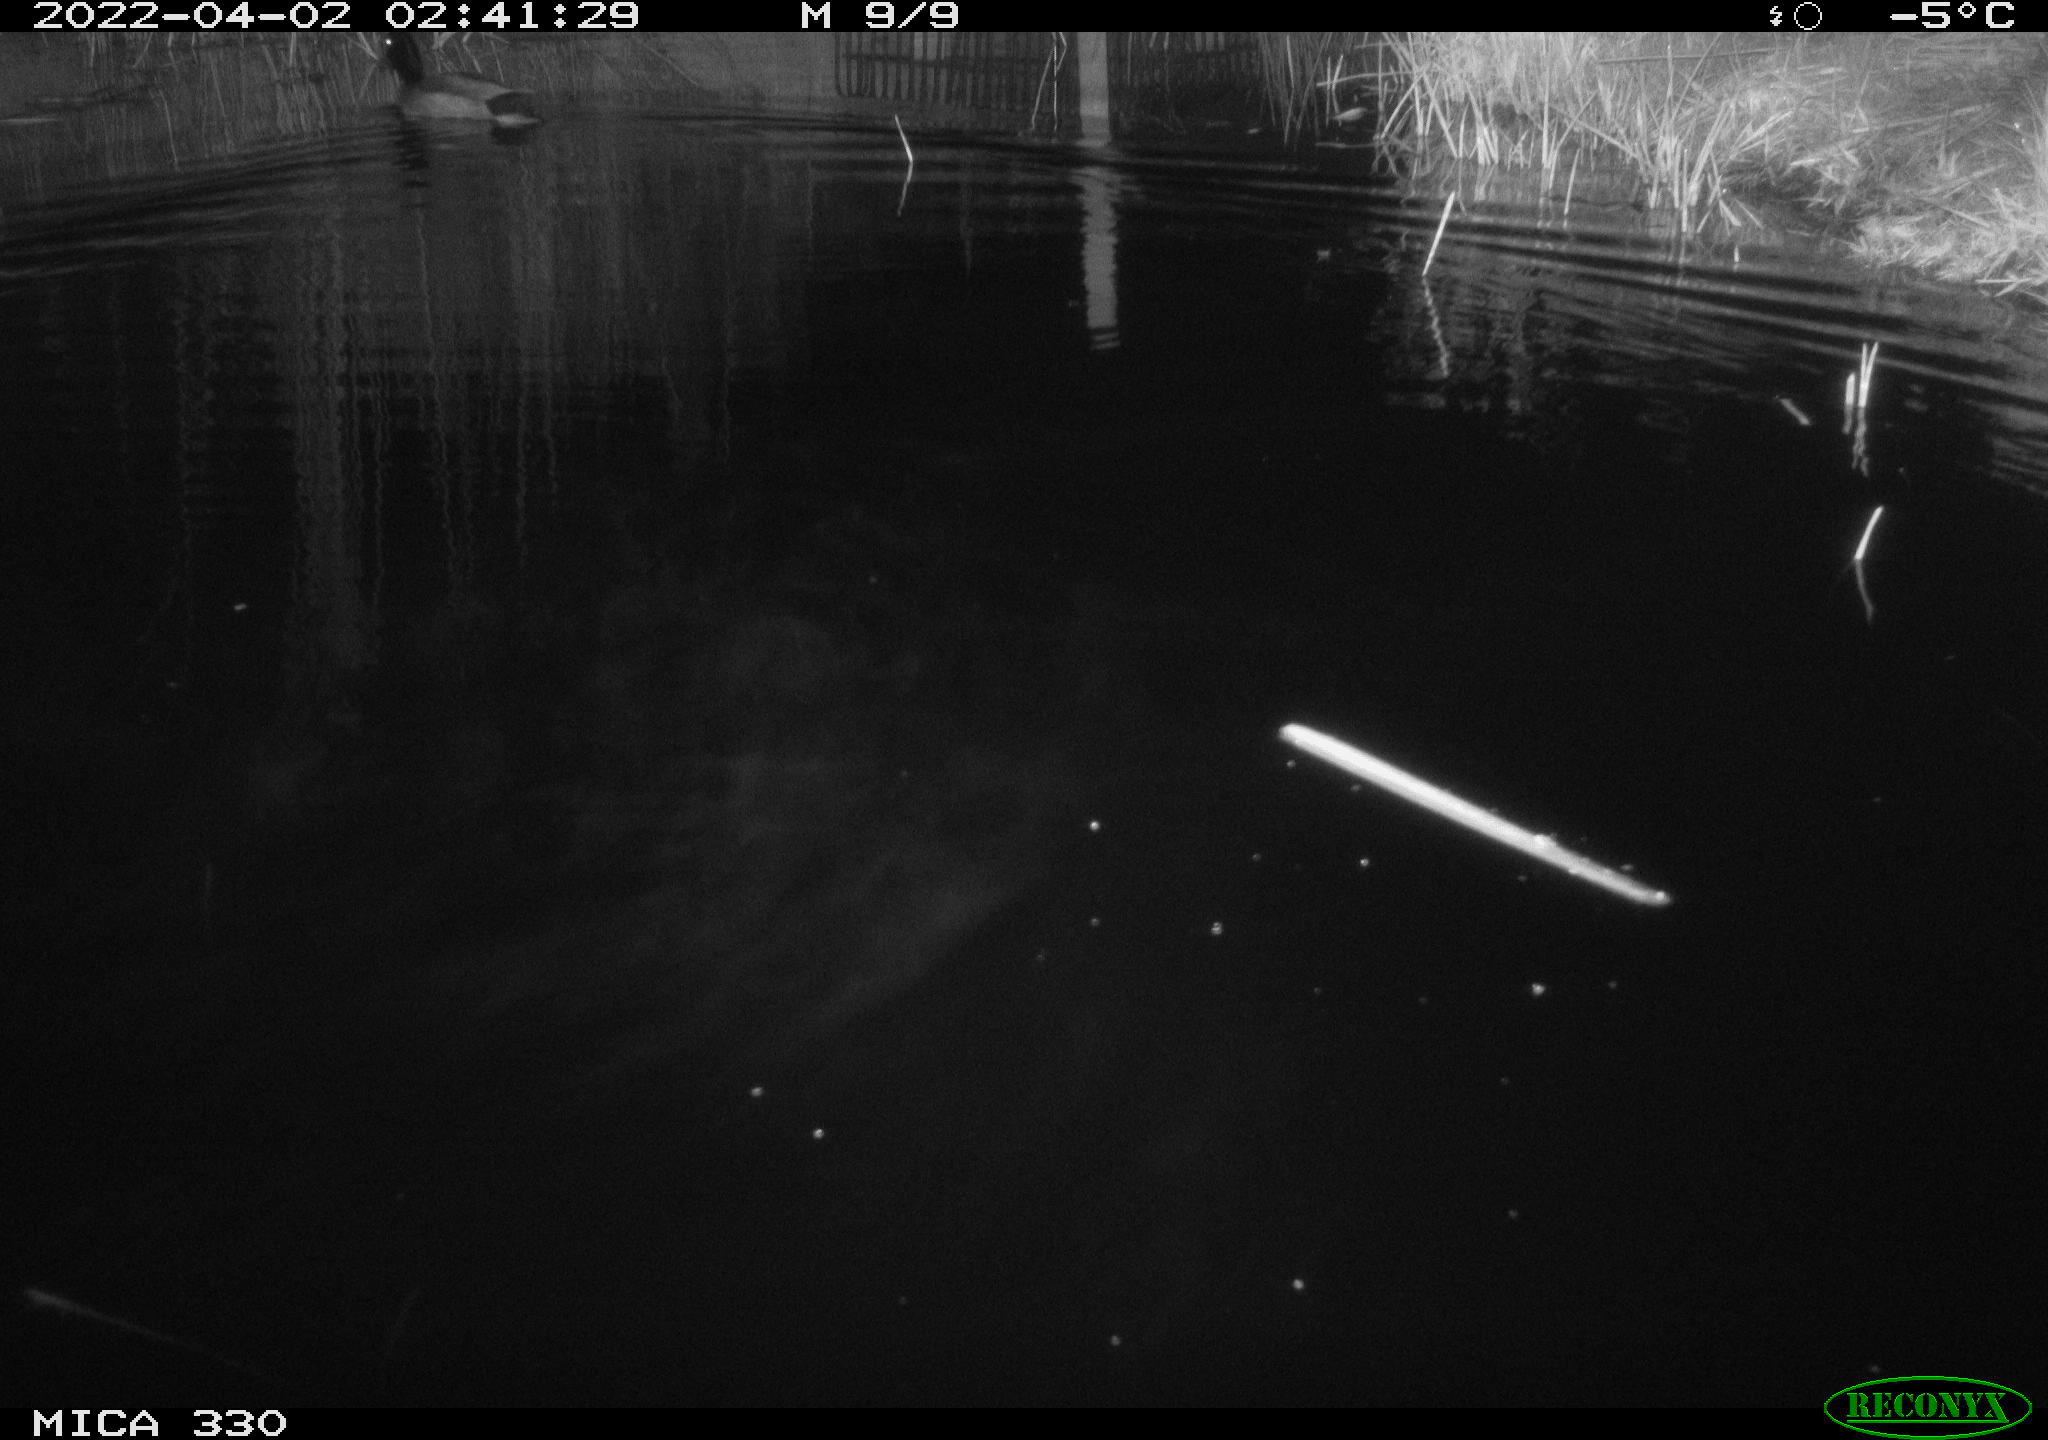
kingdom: Animalia
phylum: Chordata
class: Aves
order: Anseriformes
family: Anatidae
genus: Anas
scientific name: Anas platyrhynchos
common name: Mallard
